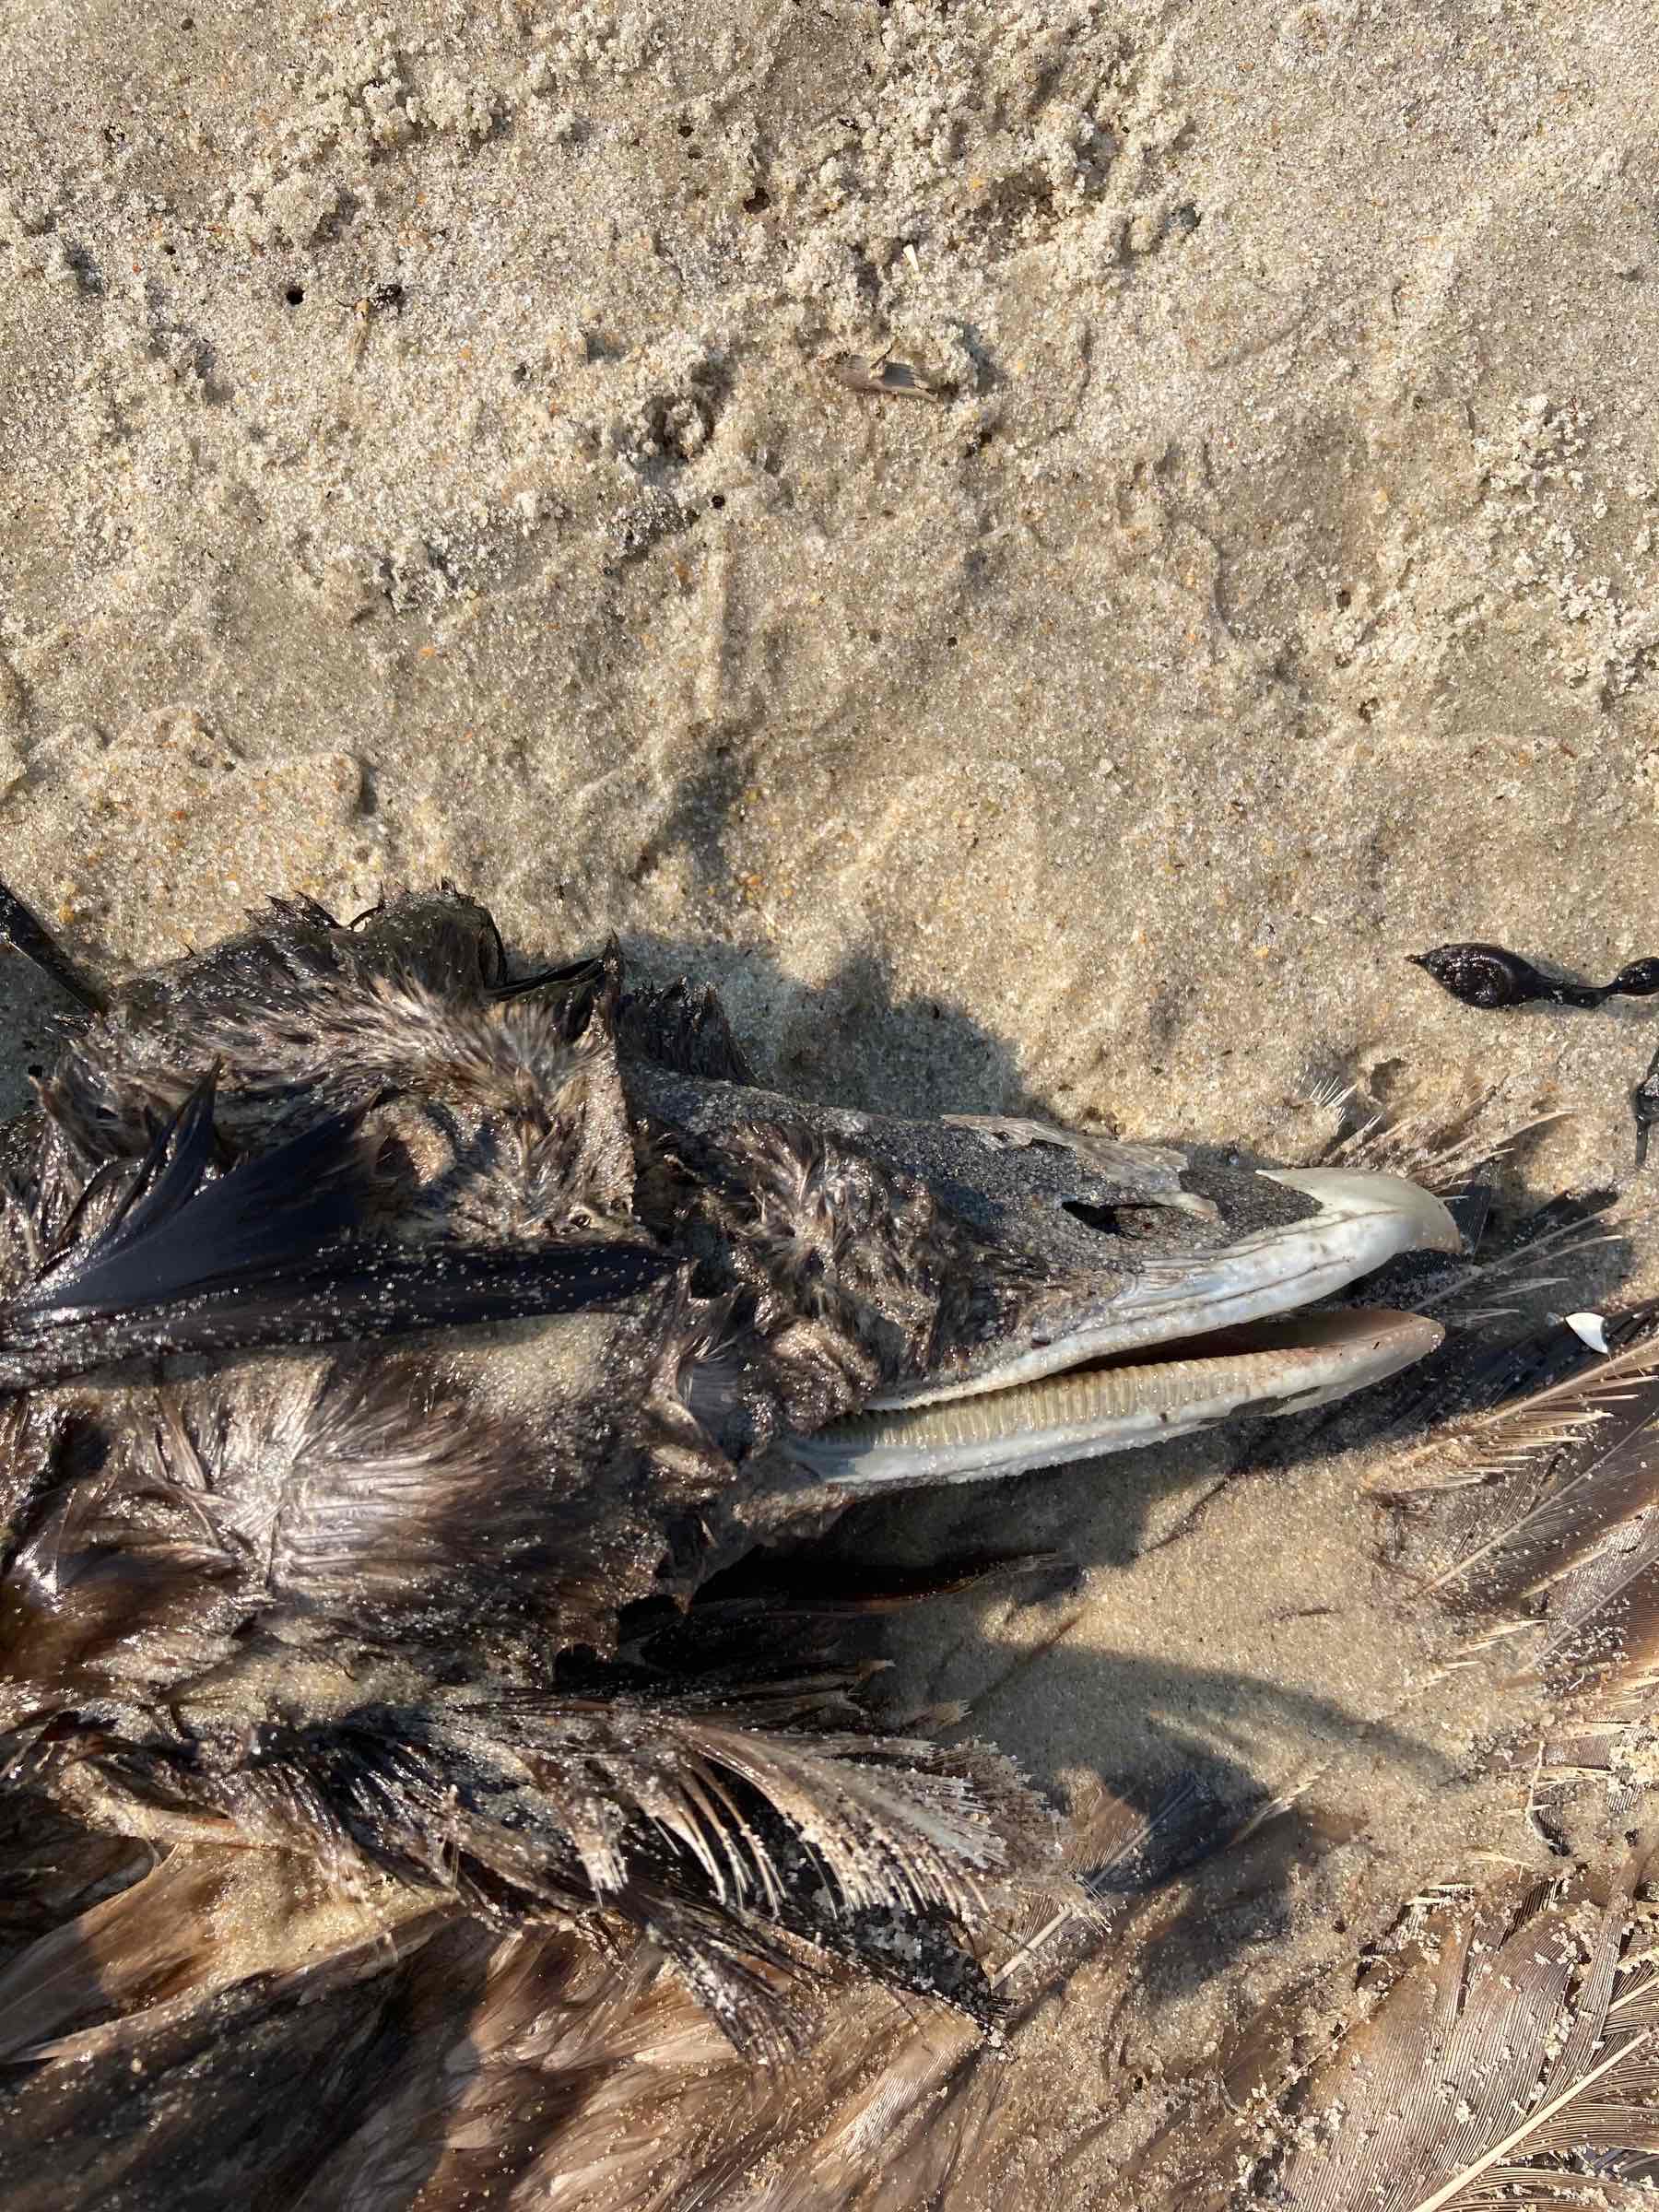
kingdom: Animalia
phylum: Chordata
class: Aves
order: Anseriformes
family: Anatidae
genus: Somateria
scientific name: Somateria mollissima
